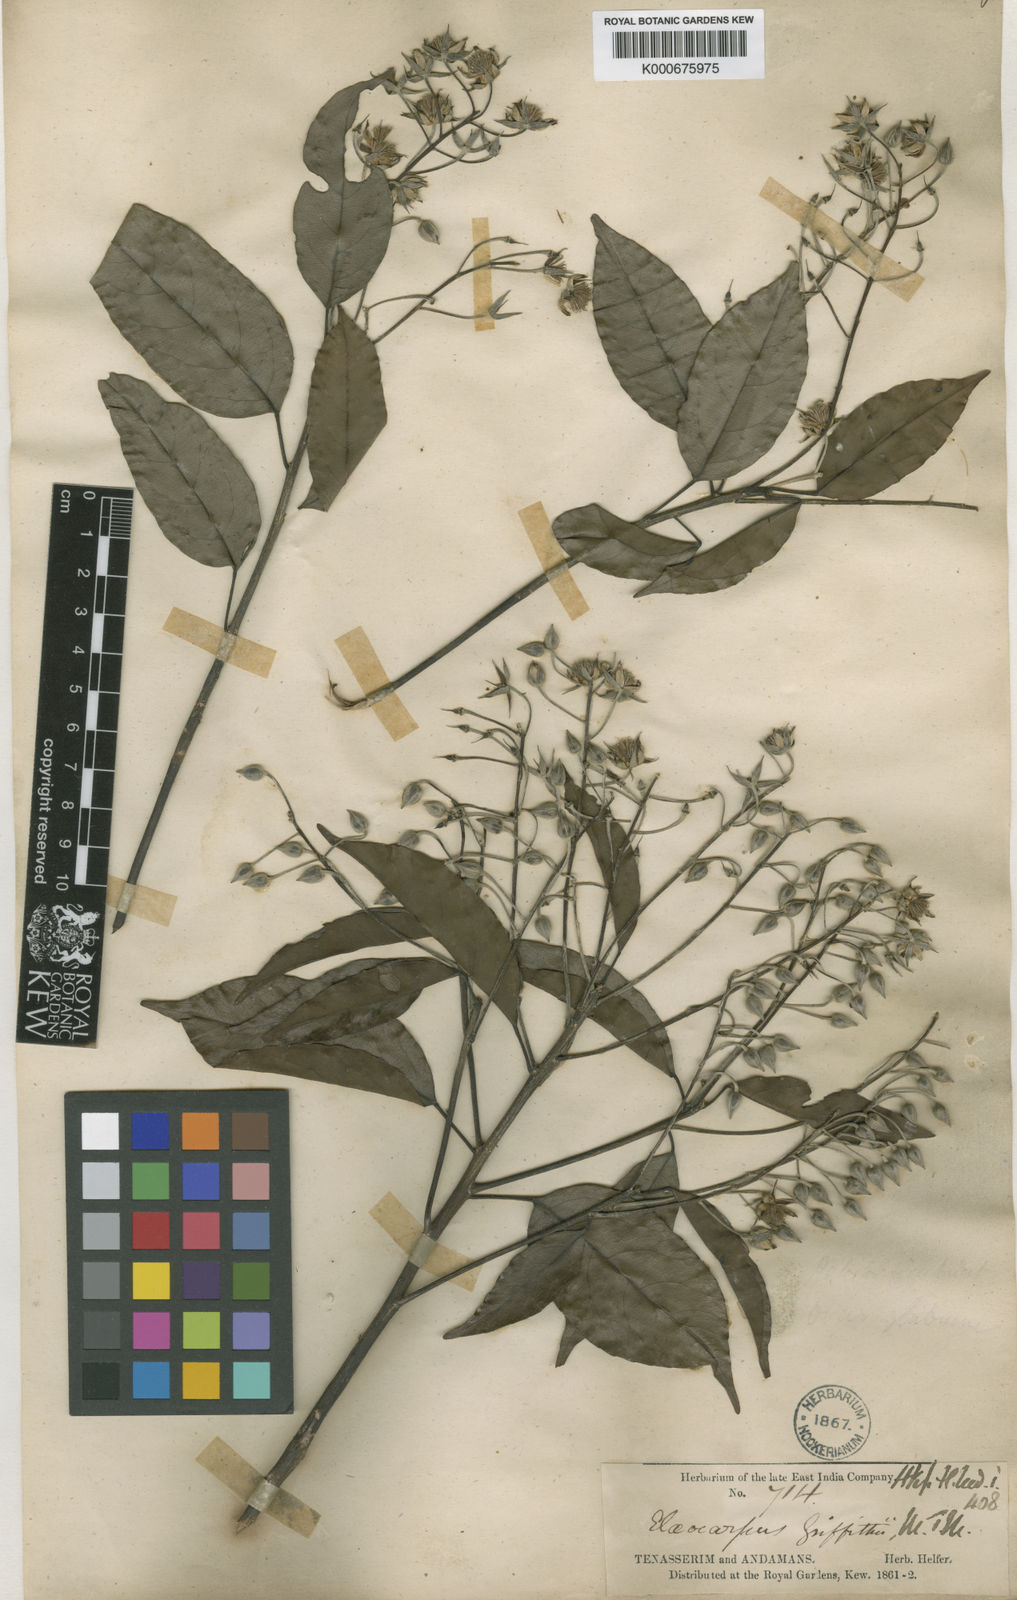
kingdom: Plantae
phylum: Tracheophyta
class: Magnoliopsida
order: Oxalidales
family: Elaeocarpaceae
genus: Elaeocarpus
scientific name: Elaeocarpus griffithii
